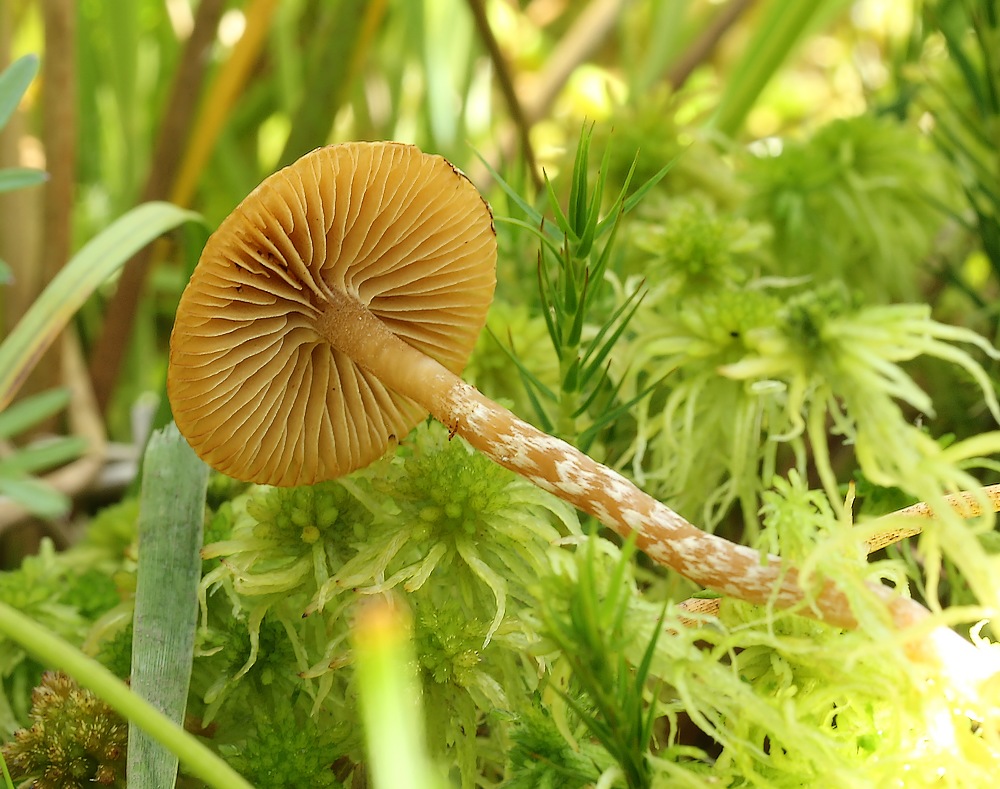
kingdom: Fungi
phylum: Basidiomycota
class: Agaricomycetes
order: Agaricales
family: Hymenogastraceae
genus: Galerina
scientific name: Galerina paludosa
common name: mose-hjelmhat
